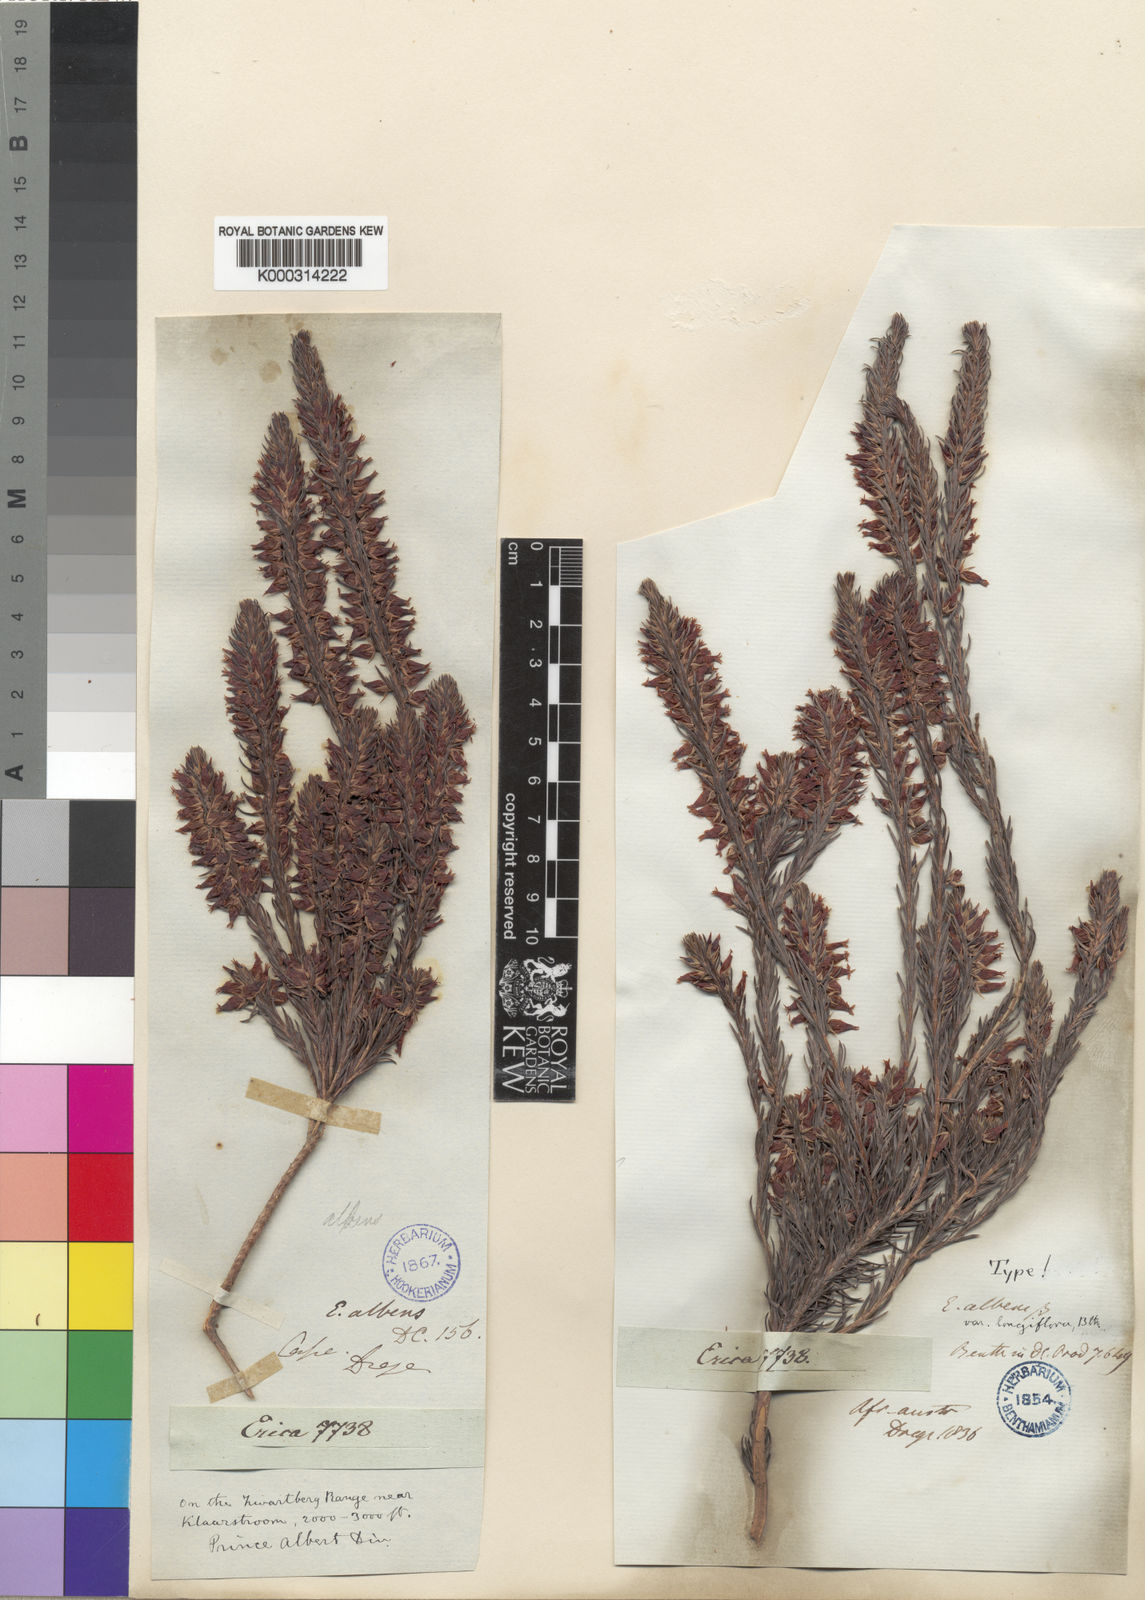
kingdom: Plantae
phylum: Tracheophyta
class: Magnoliopsida
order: Ericales
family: Ericaceae
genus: Erica
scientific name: Erica astroites
